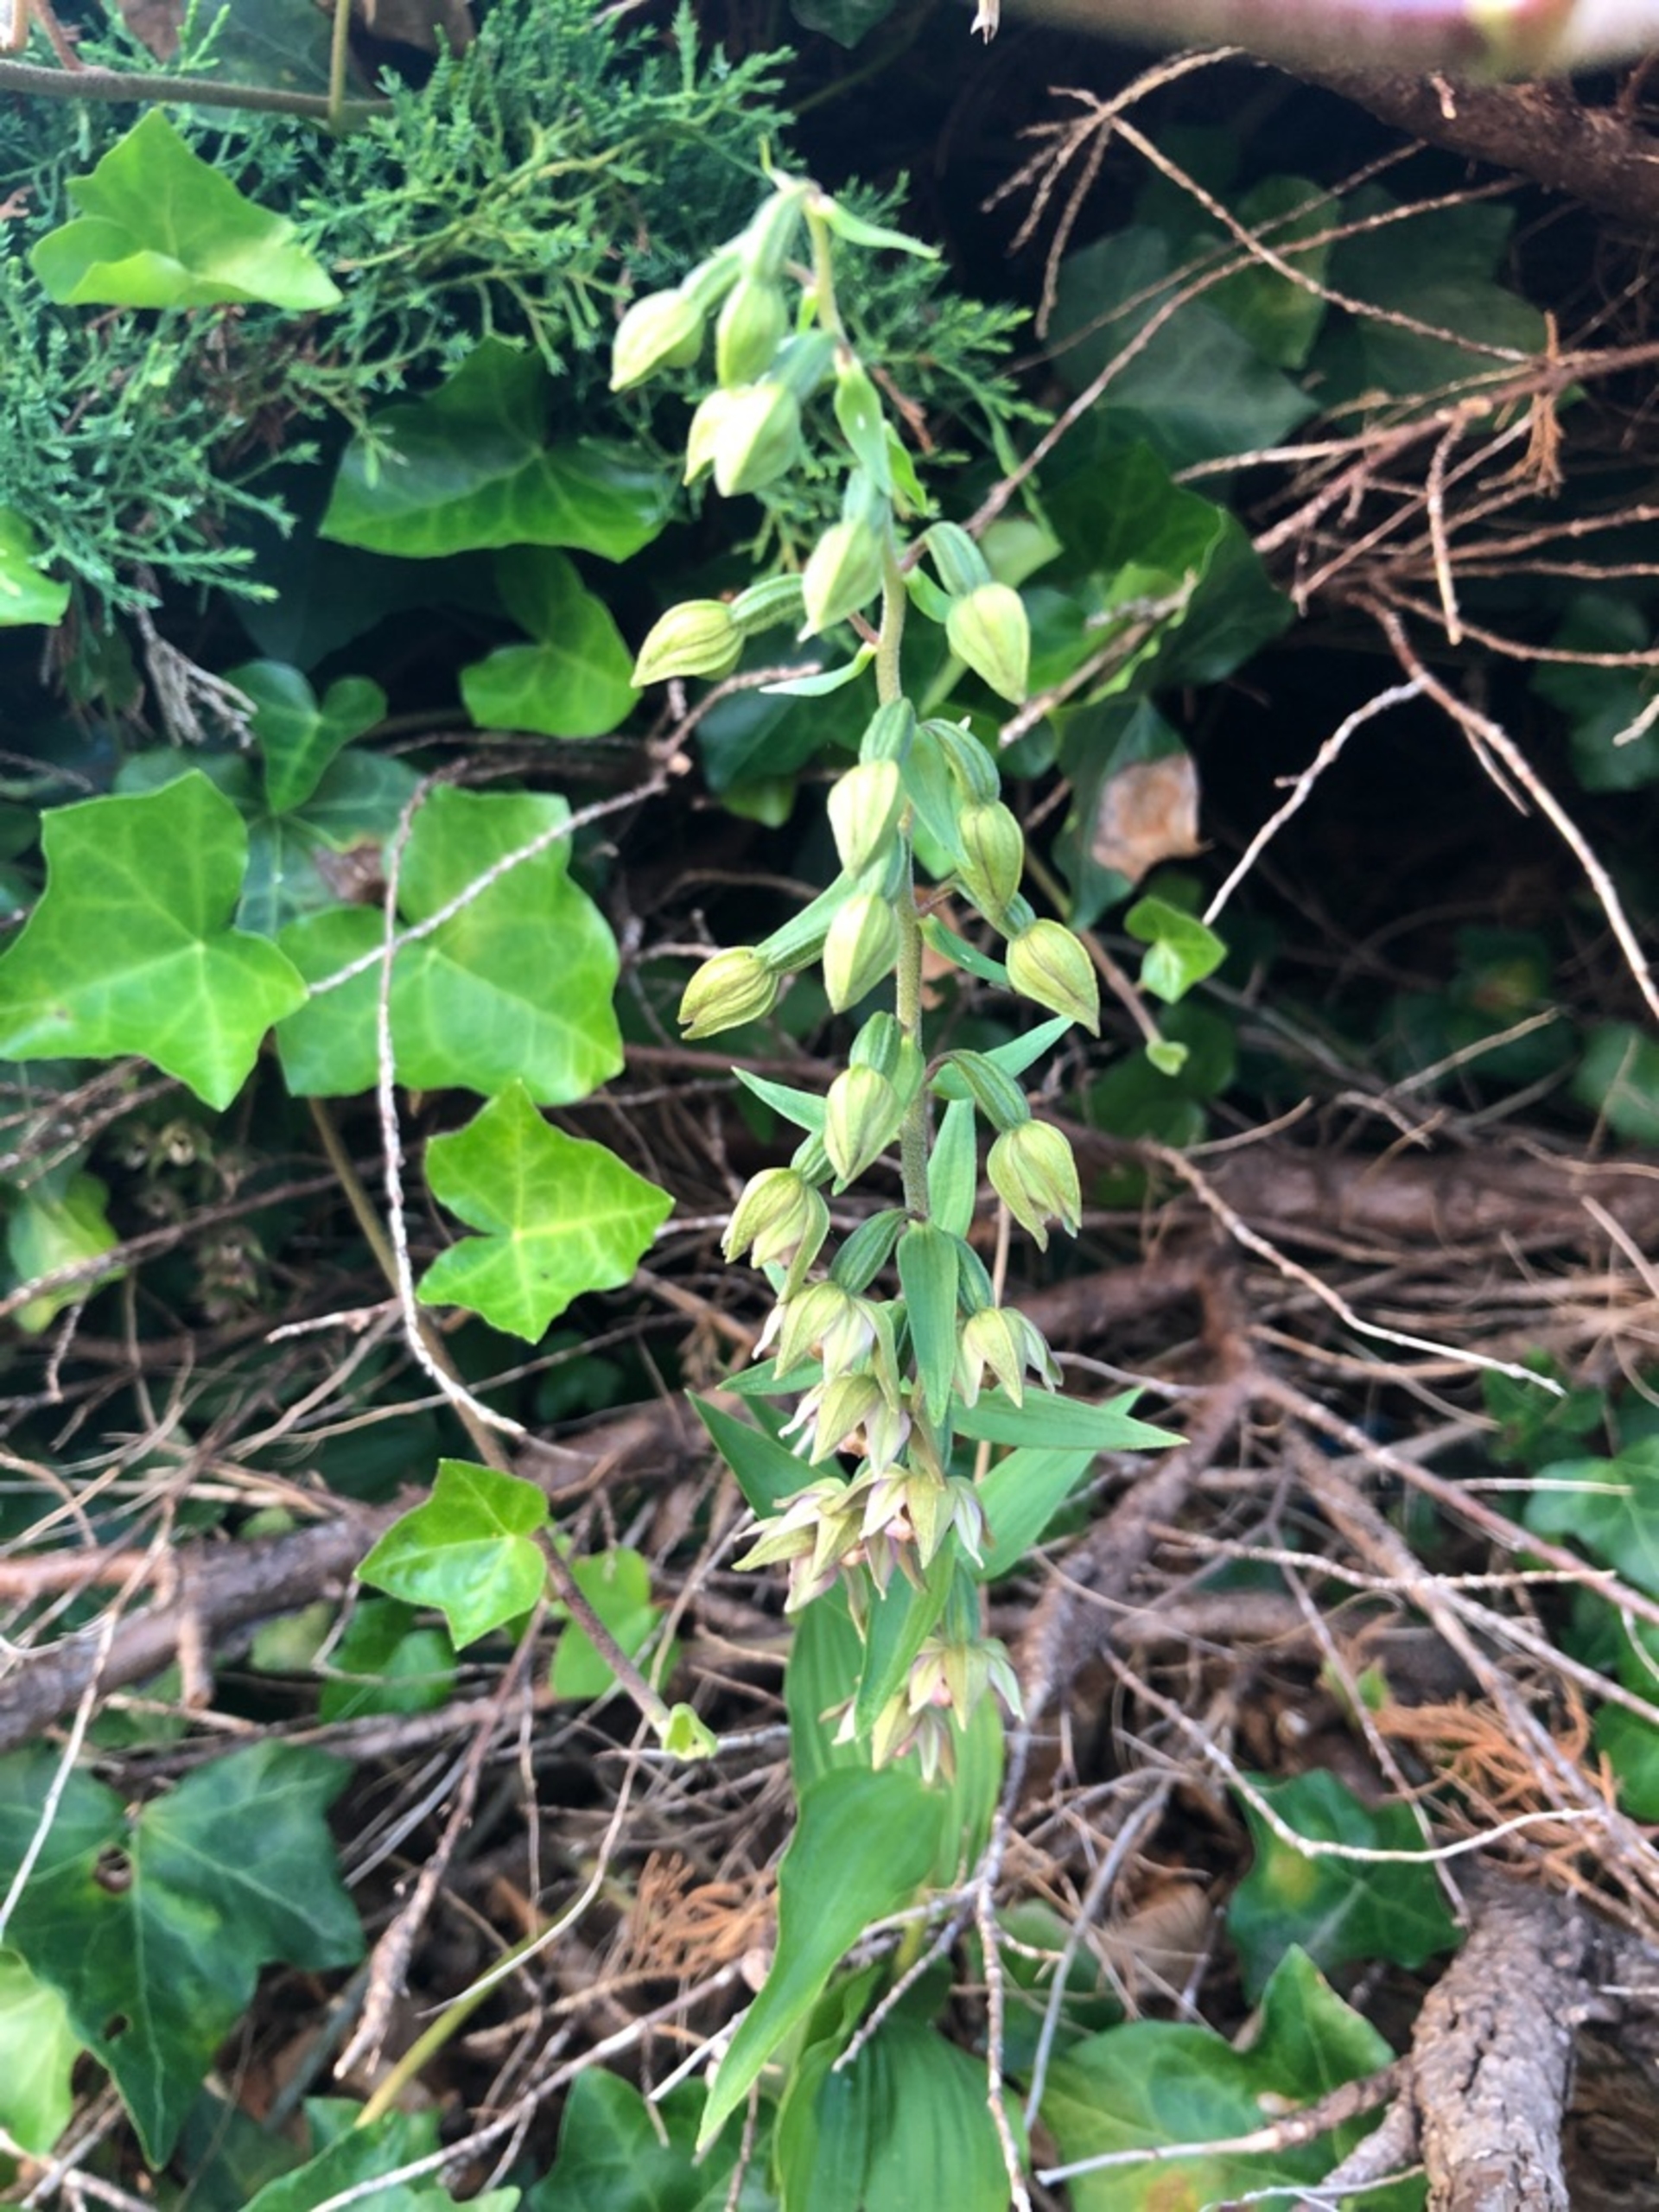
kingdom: Plantae
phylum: Tracheophyta
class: Liliopsida
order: Asparagales
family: Orchidaceae
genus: Epipactis
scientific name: Epipactis helleborine
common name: Skov-hullæbe
